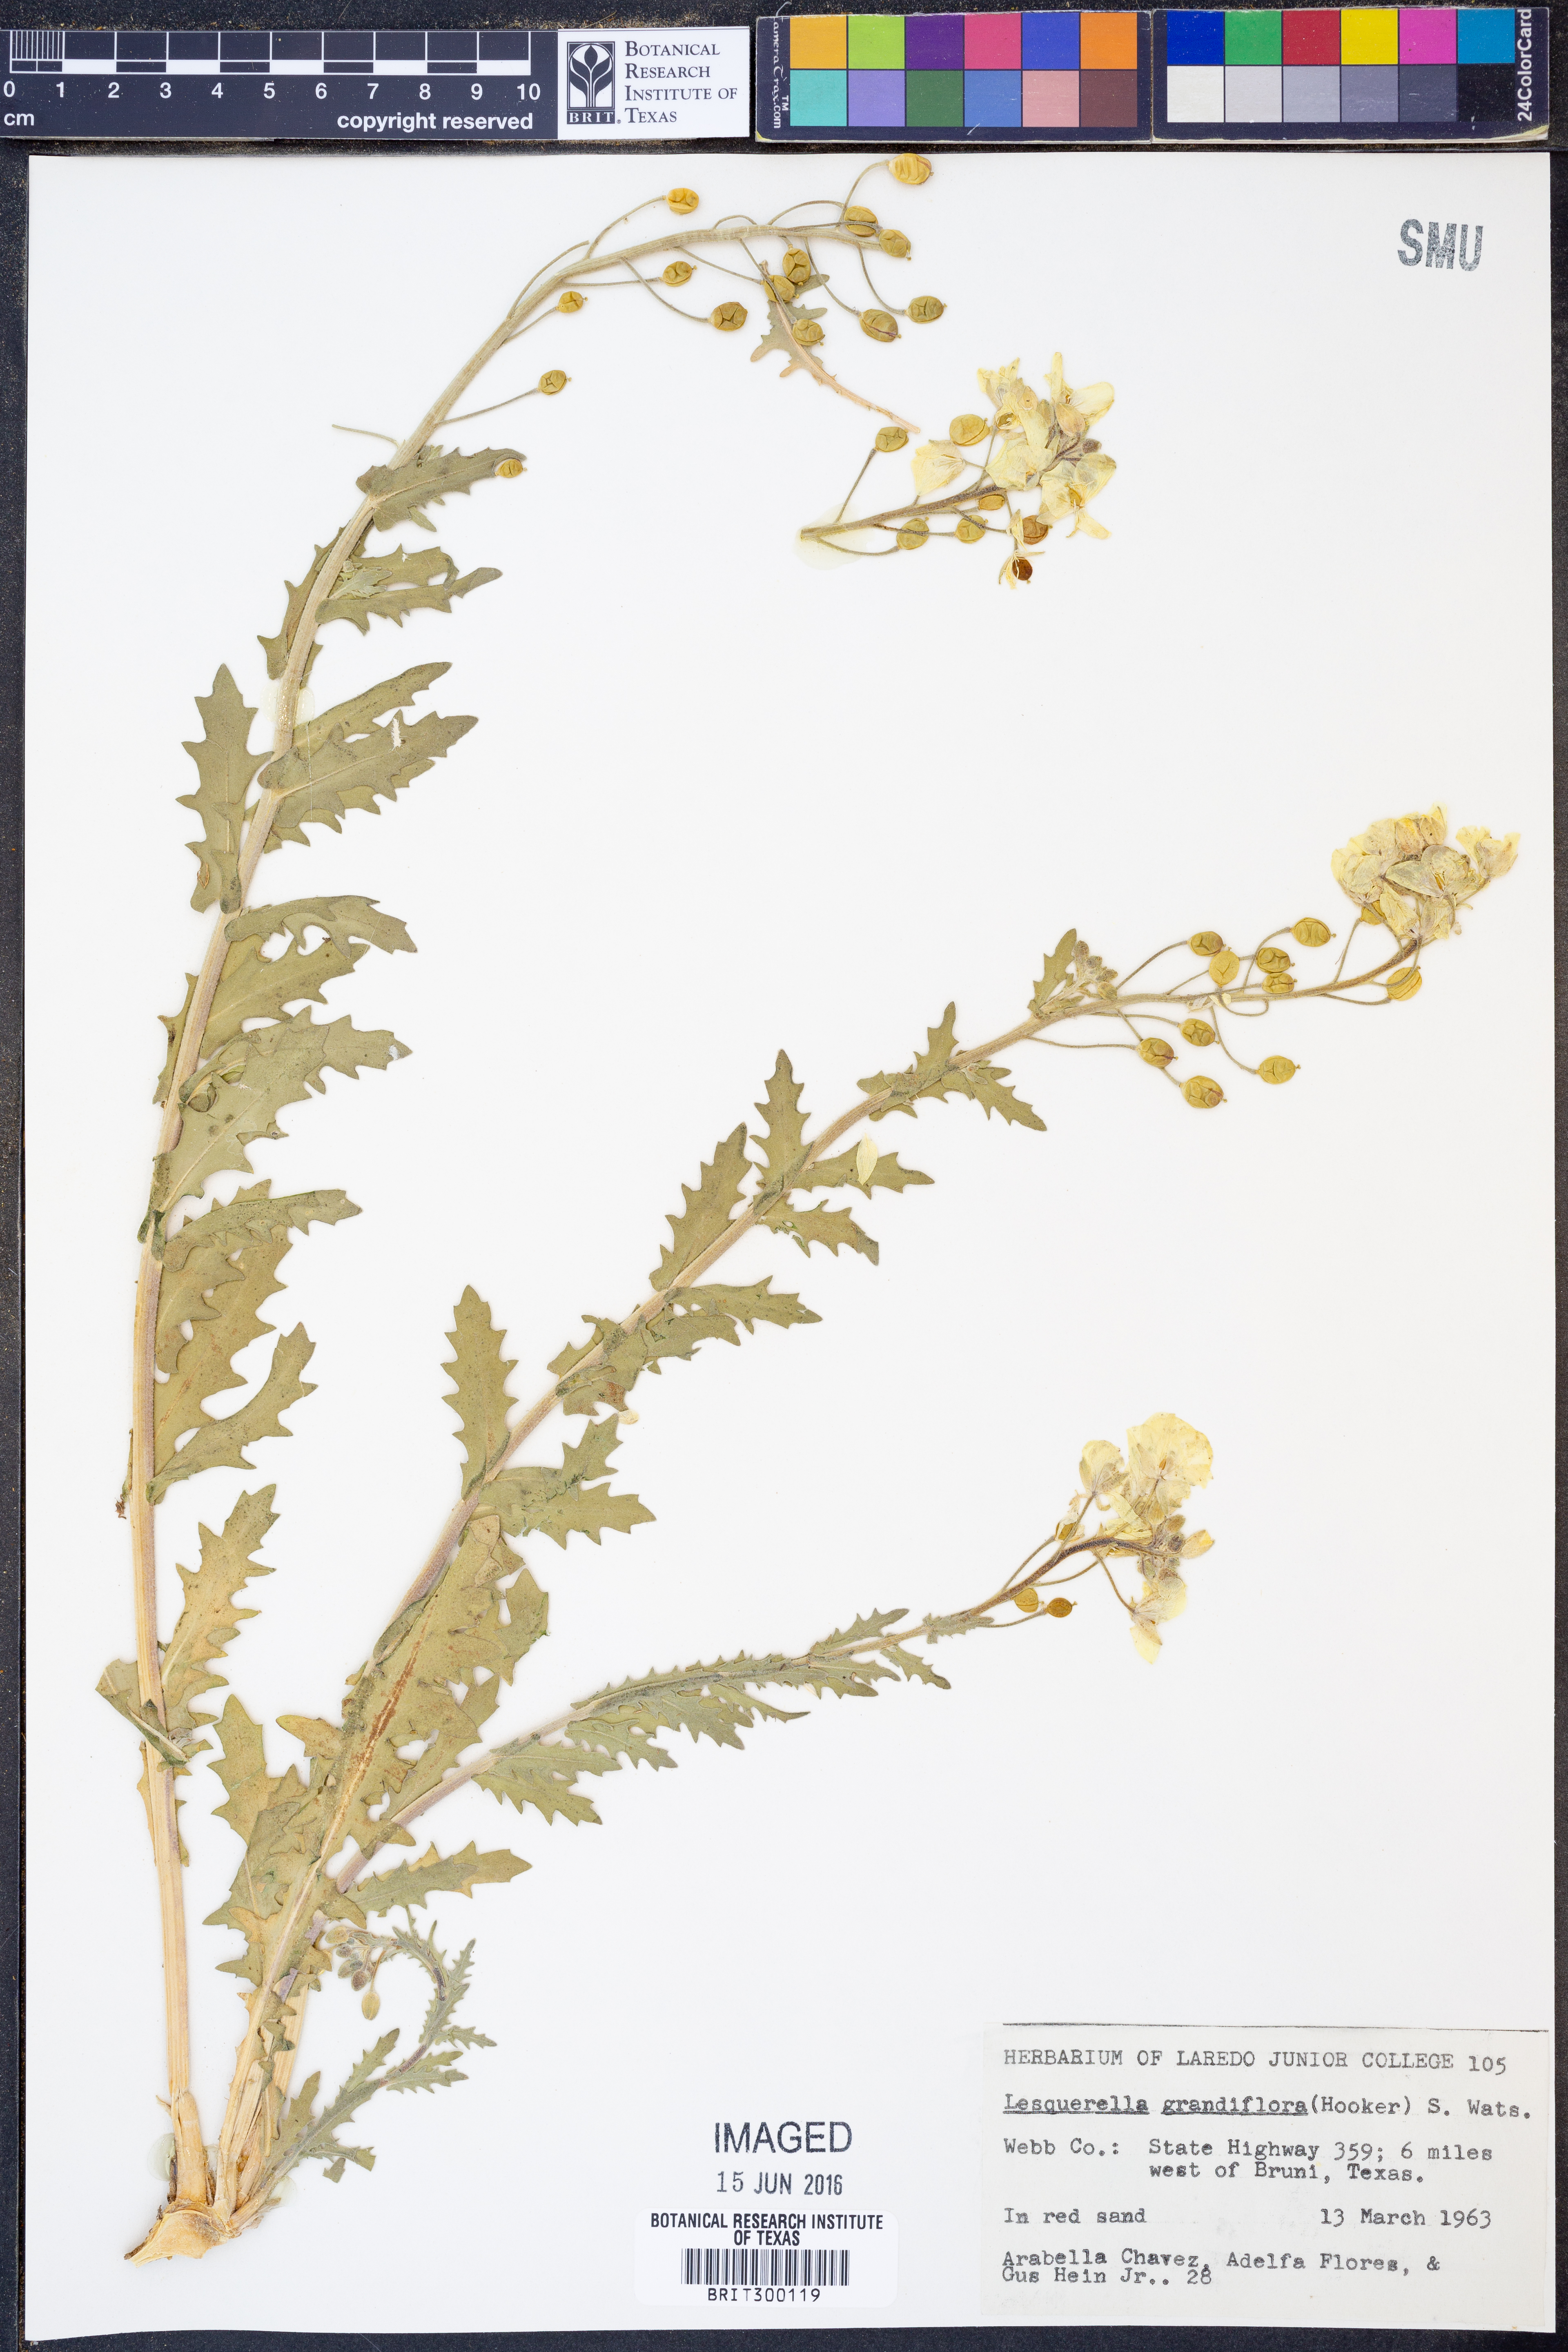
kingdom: Plantae
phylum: Tracheophyta
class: Magnoliopsida
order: Brassicales
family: Brassicaceae
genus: Paysonia
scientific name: Paysonia grandiflora
